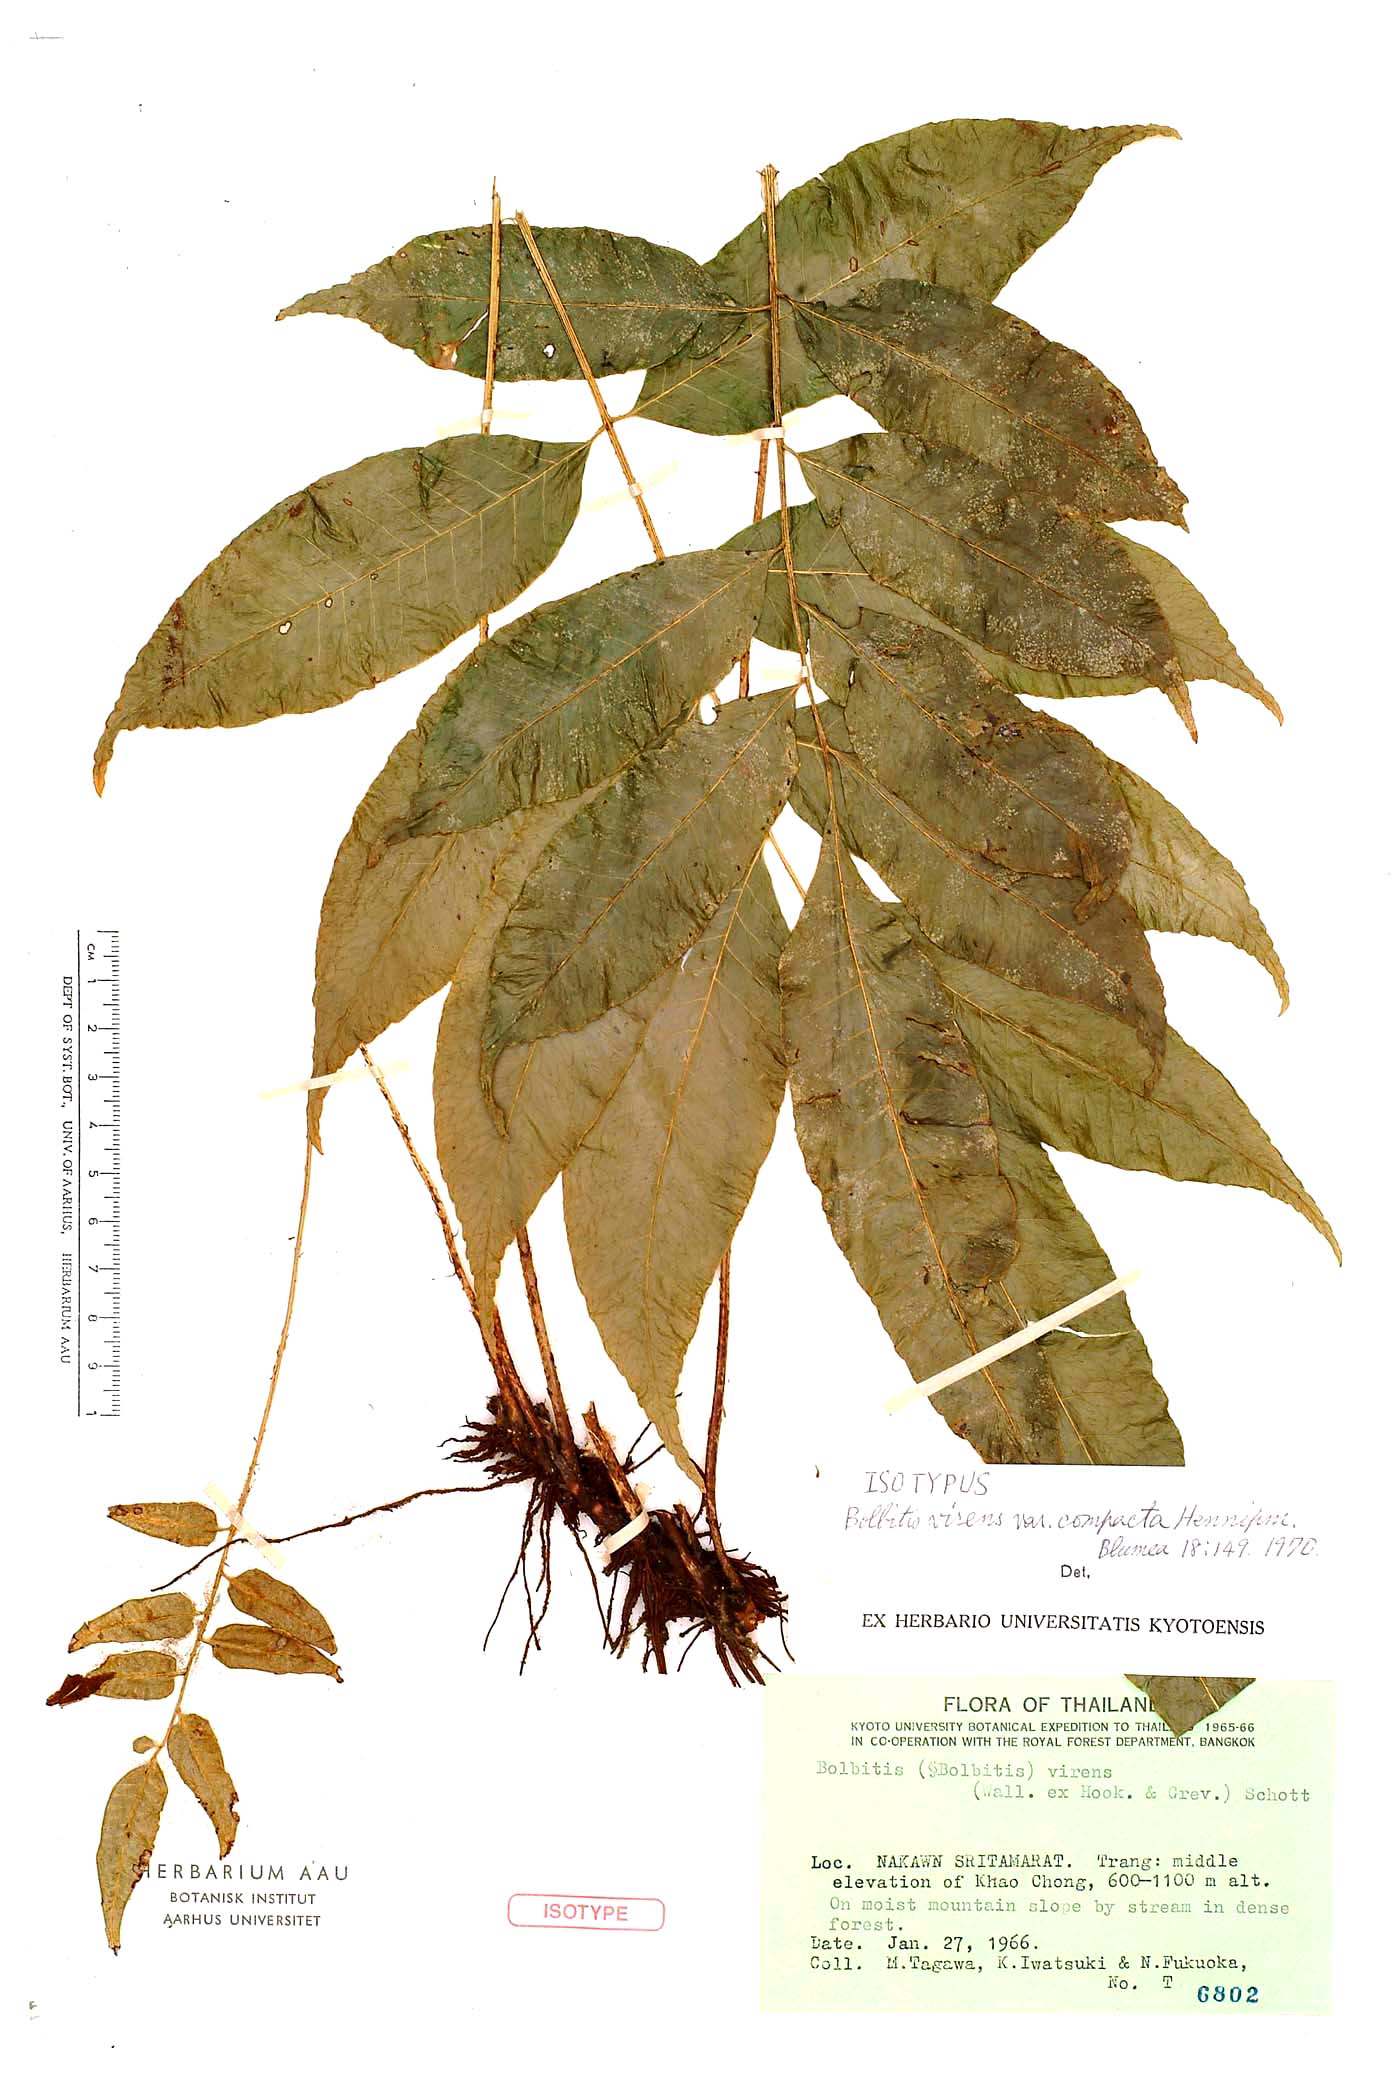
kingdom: Plantae
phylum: Tracheophyta
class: Polypodiopsida
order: Polypodiales
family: Dryopteridaceae
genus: Bolbitis
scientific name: Bolbitis virens
